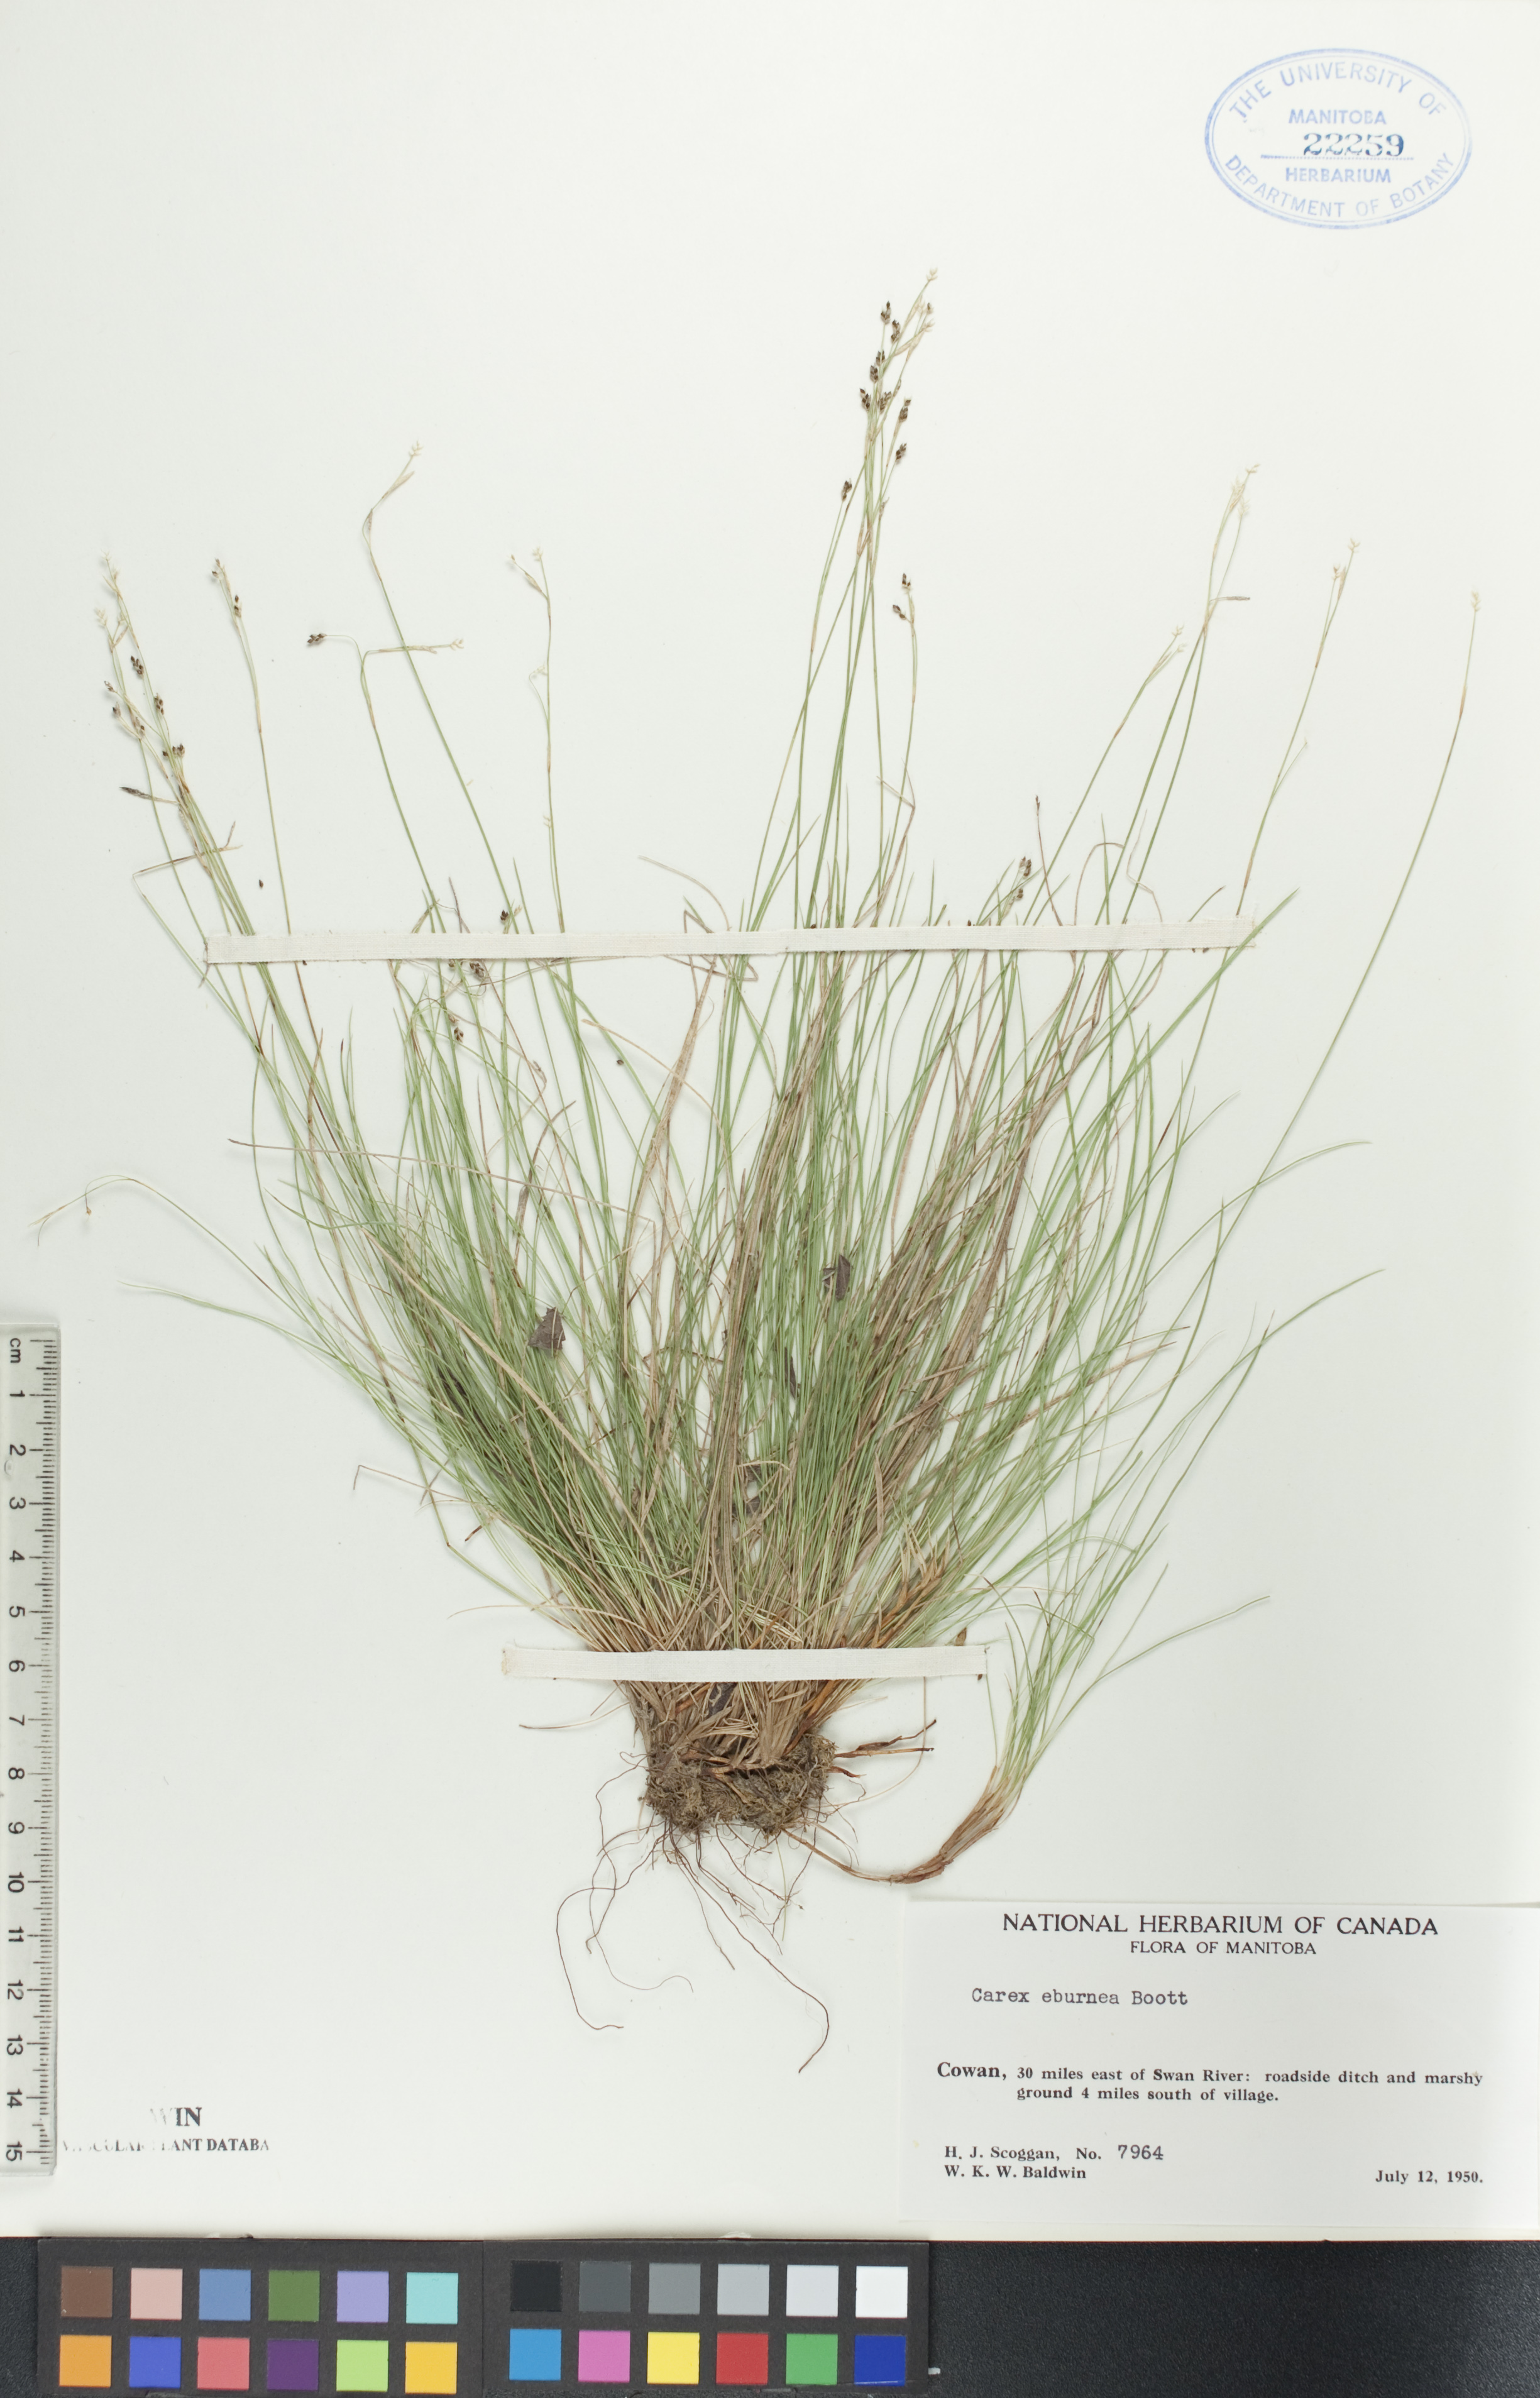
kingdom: Plantae
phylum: Tracheophyta
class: Liliopsida
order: Poales
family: Cyperaceae
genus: Carex
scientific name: Carex eburnea
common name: Bristle-leaved sedge
